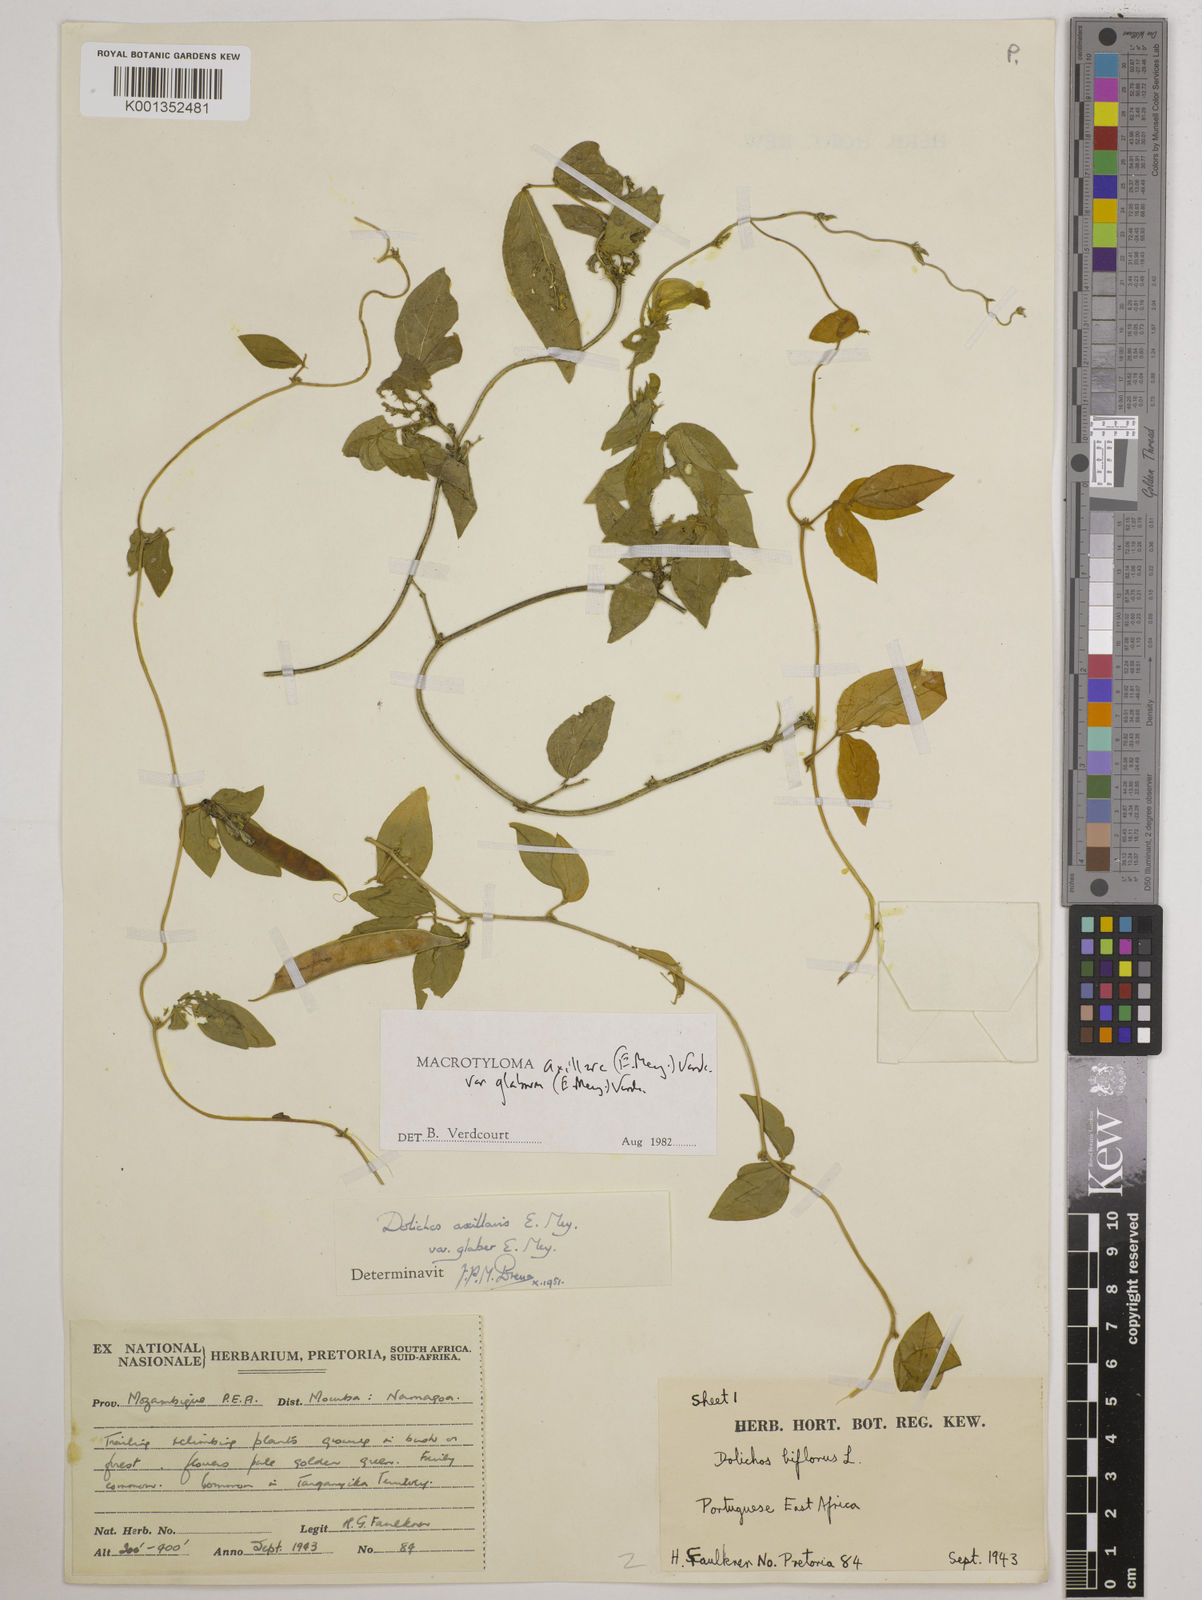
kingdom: Plantae
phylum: Tracheophyta
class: Magnoliopsida
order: Fabales
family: Fabaceae
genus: Macrotyloma
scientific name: Macrotyloma
